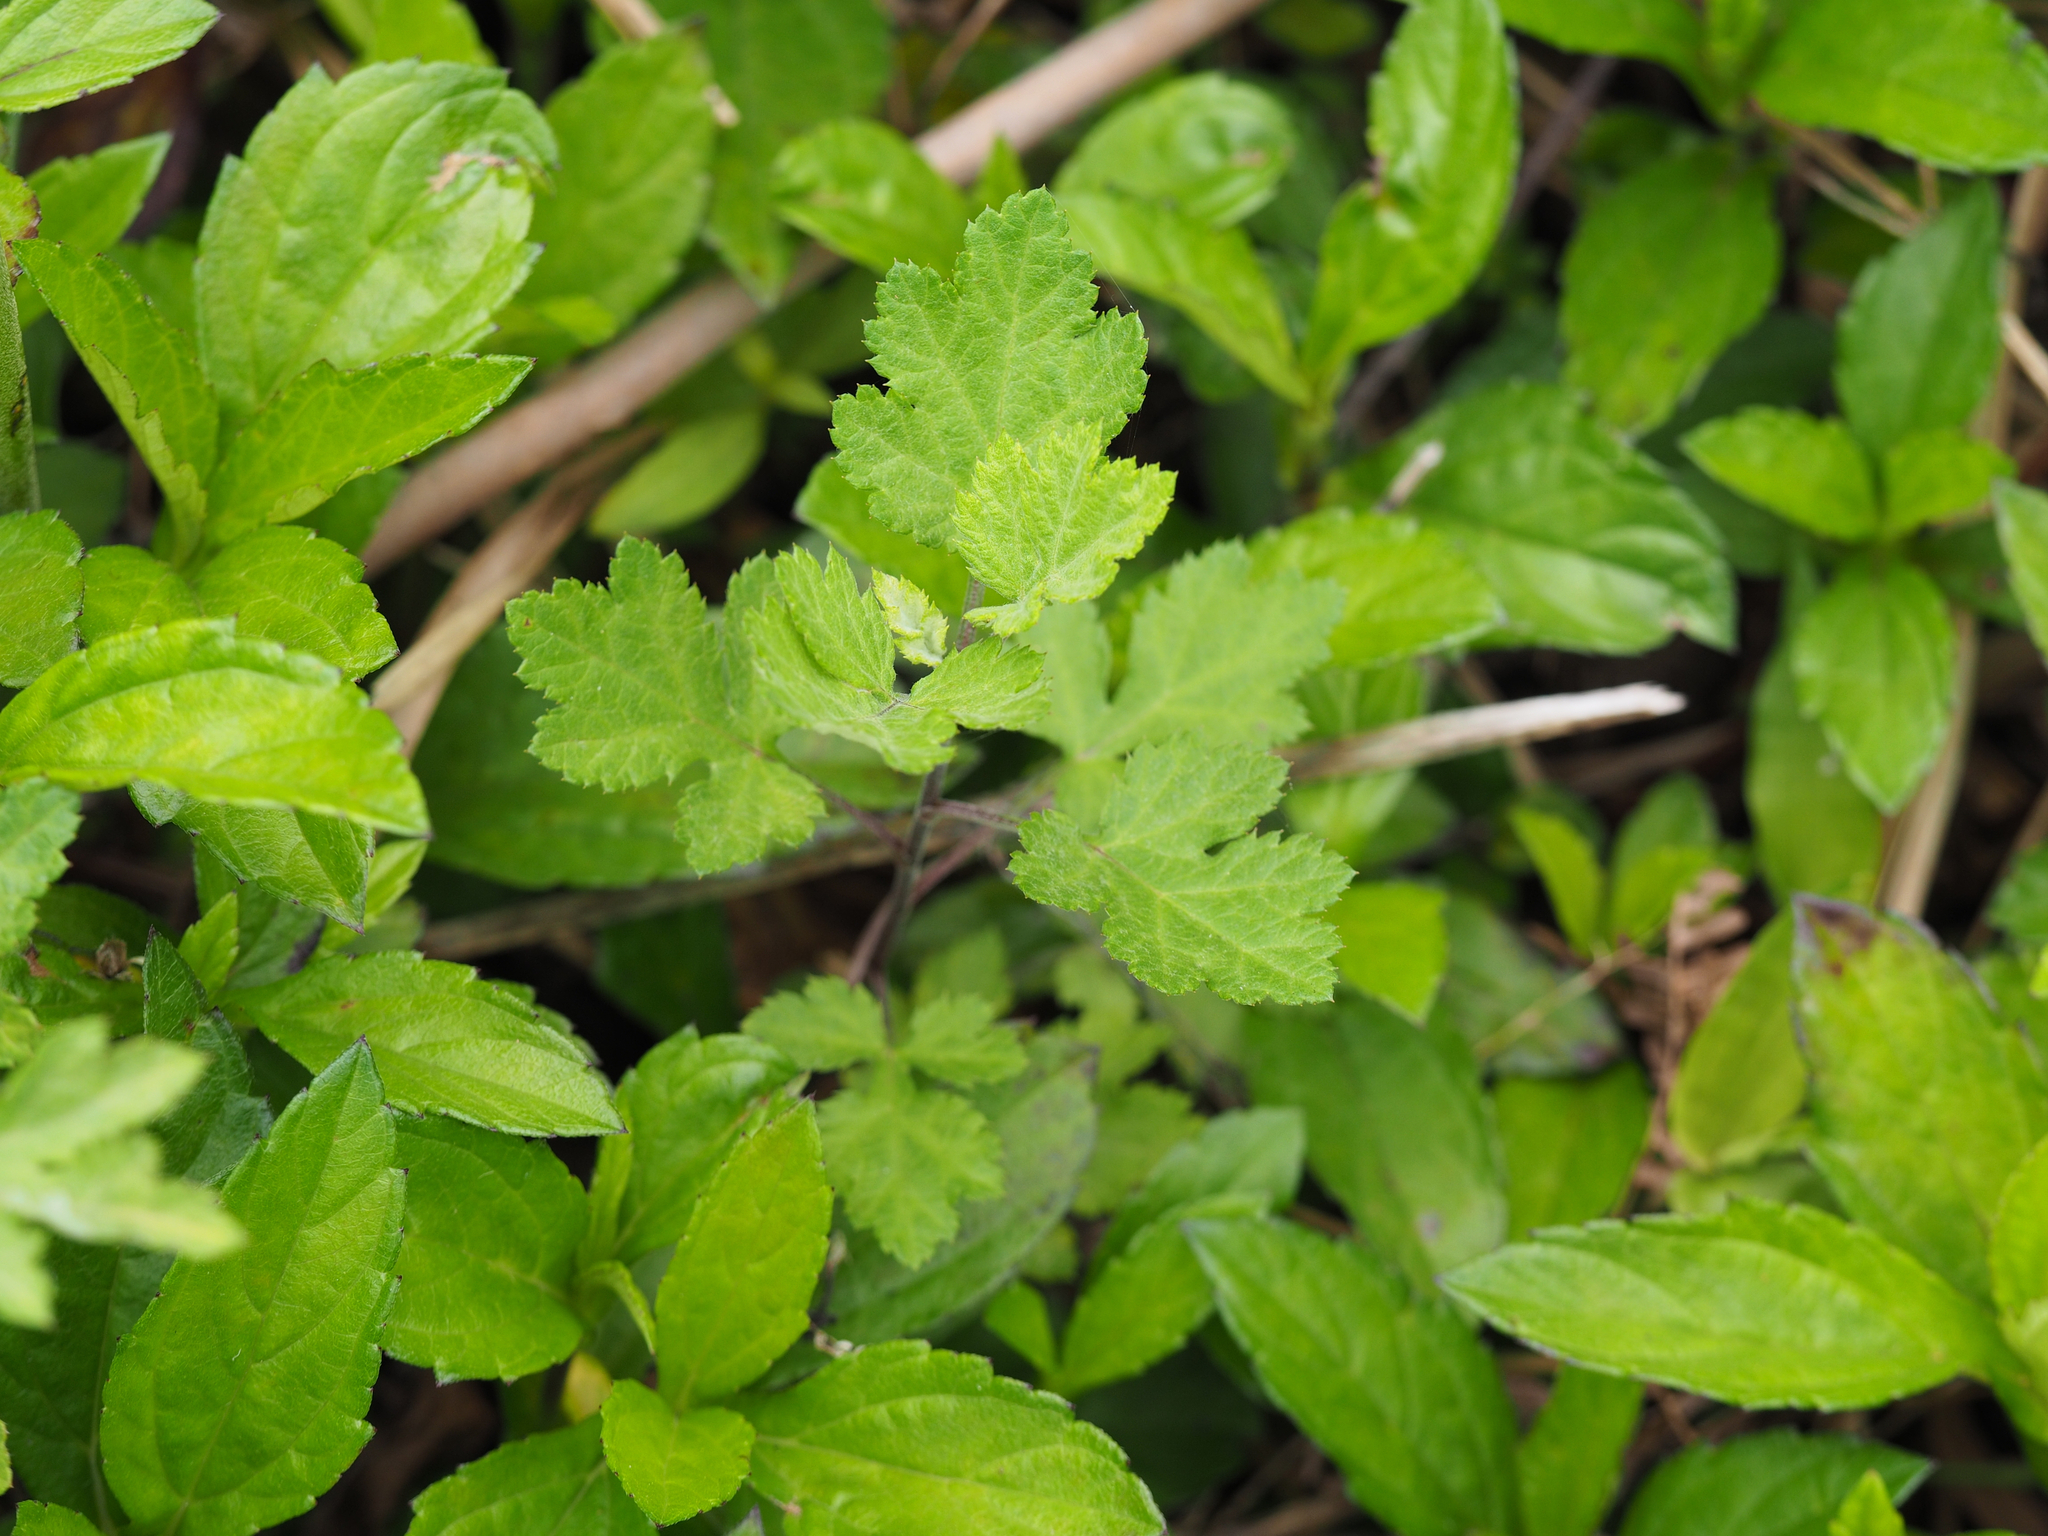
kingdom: Plantae
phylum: Tracheophyta
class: Magnoliopsida
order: Asterales
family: Asteraceae
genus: Artemisia
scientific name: Artemisia indica
